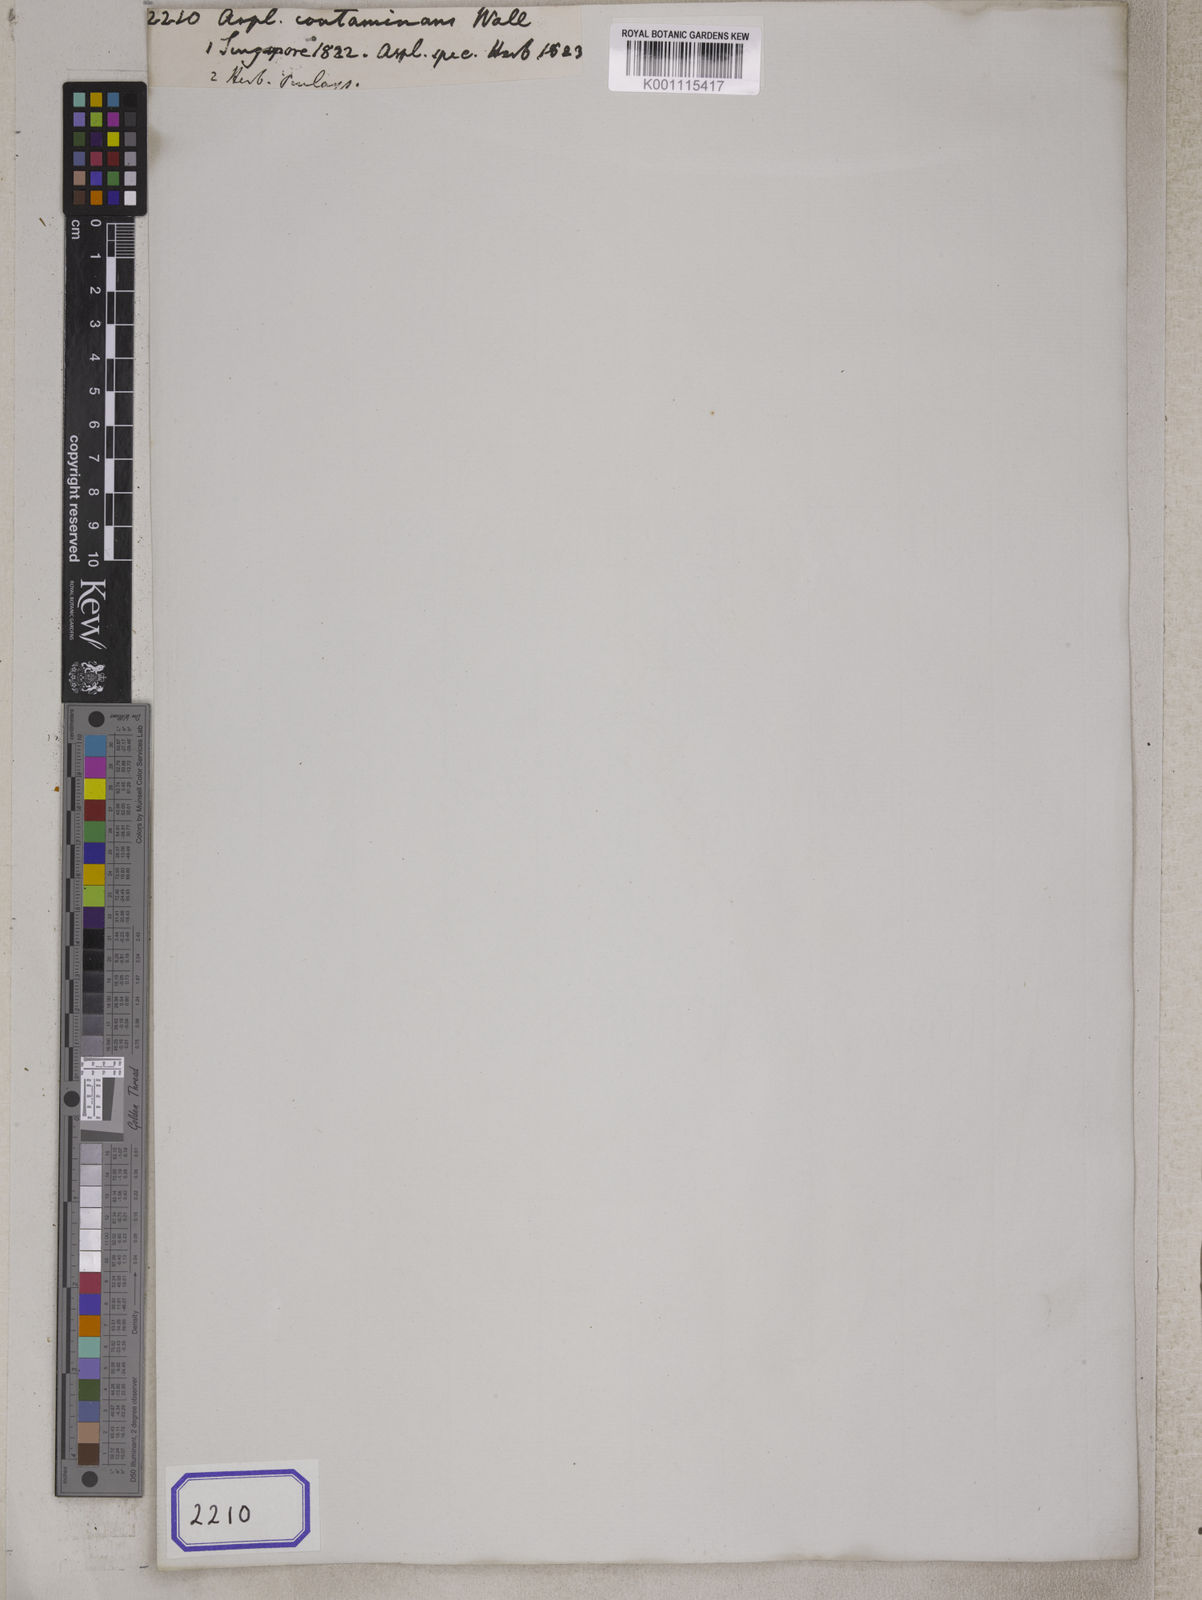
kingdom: Plantae
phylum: Tracheophyta
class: Polypodiopsida
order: Polypodiales
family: Aspleniaceae
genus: Asplenium
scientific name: Asplenium contaminans
